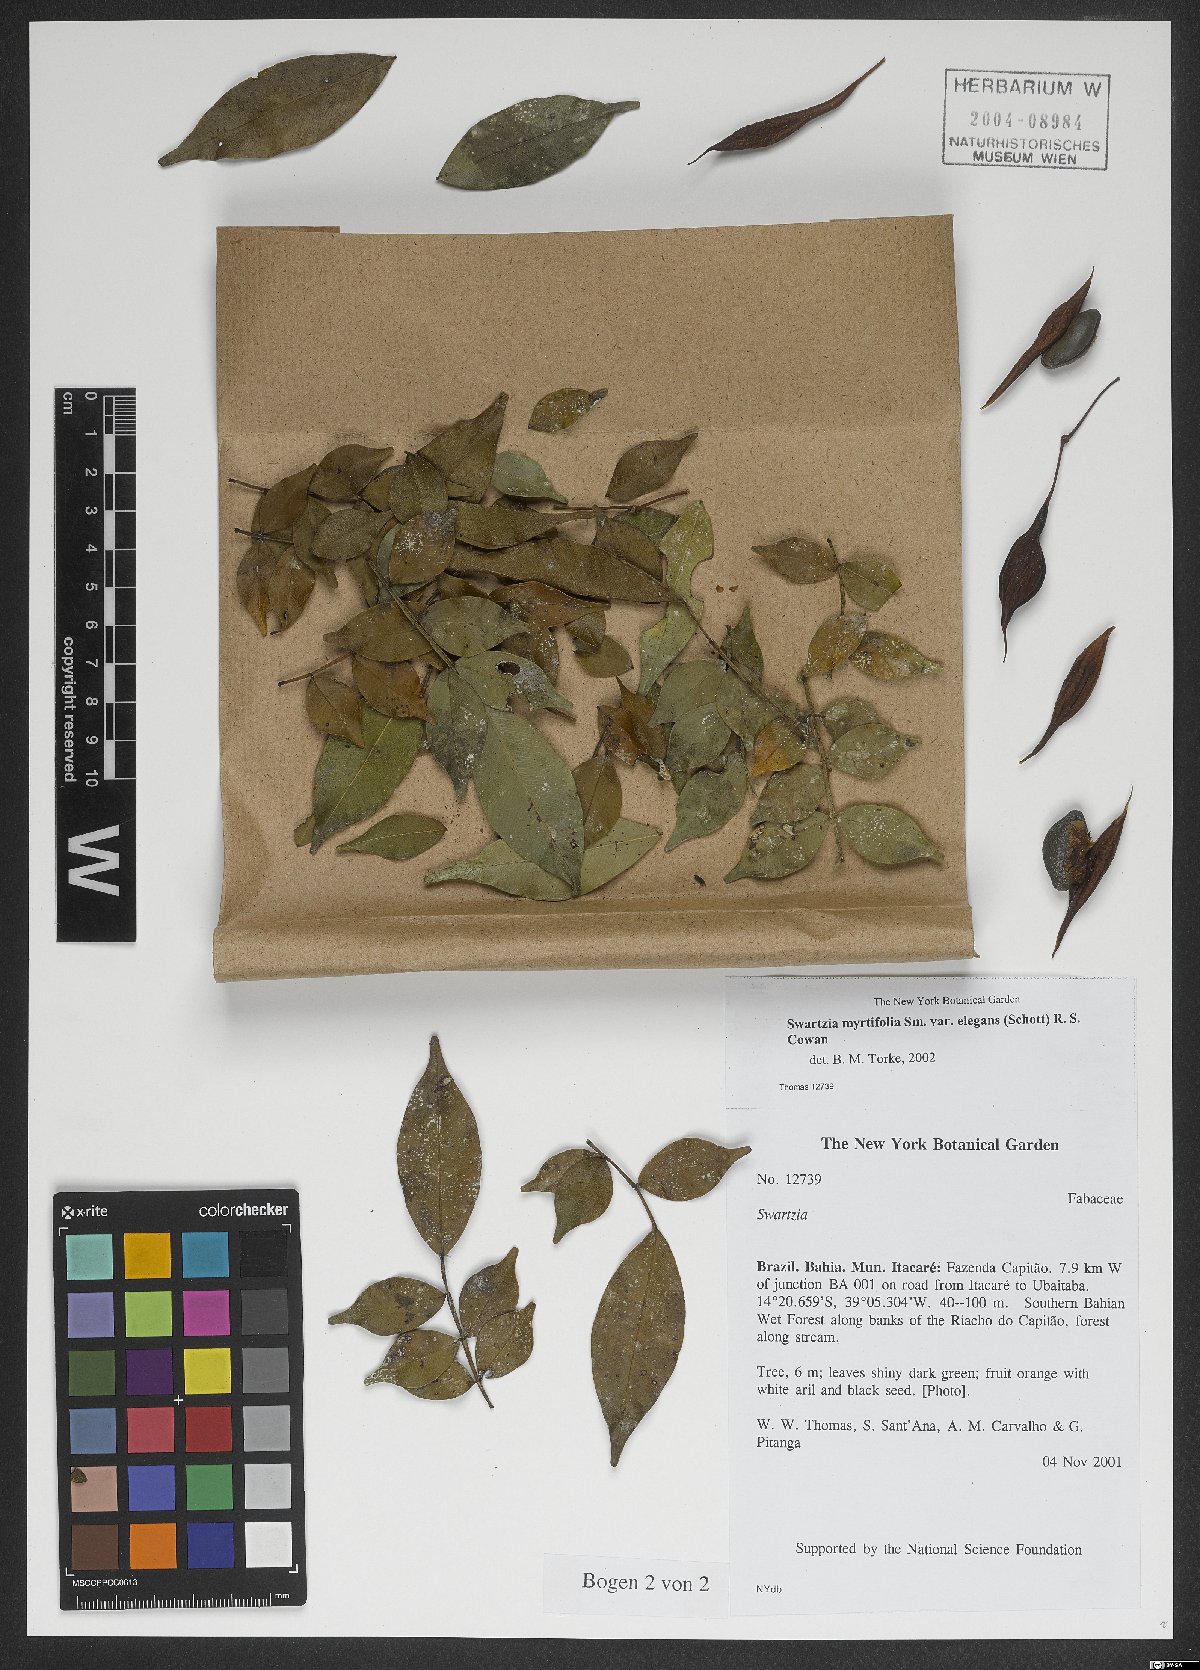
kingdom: Plantae
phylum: Tracheophyta
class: Magnoliopsida
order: Fabales
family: Fabaceae
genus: Swartzia
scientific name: Swartzia myrtifolia
